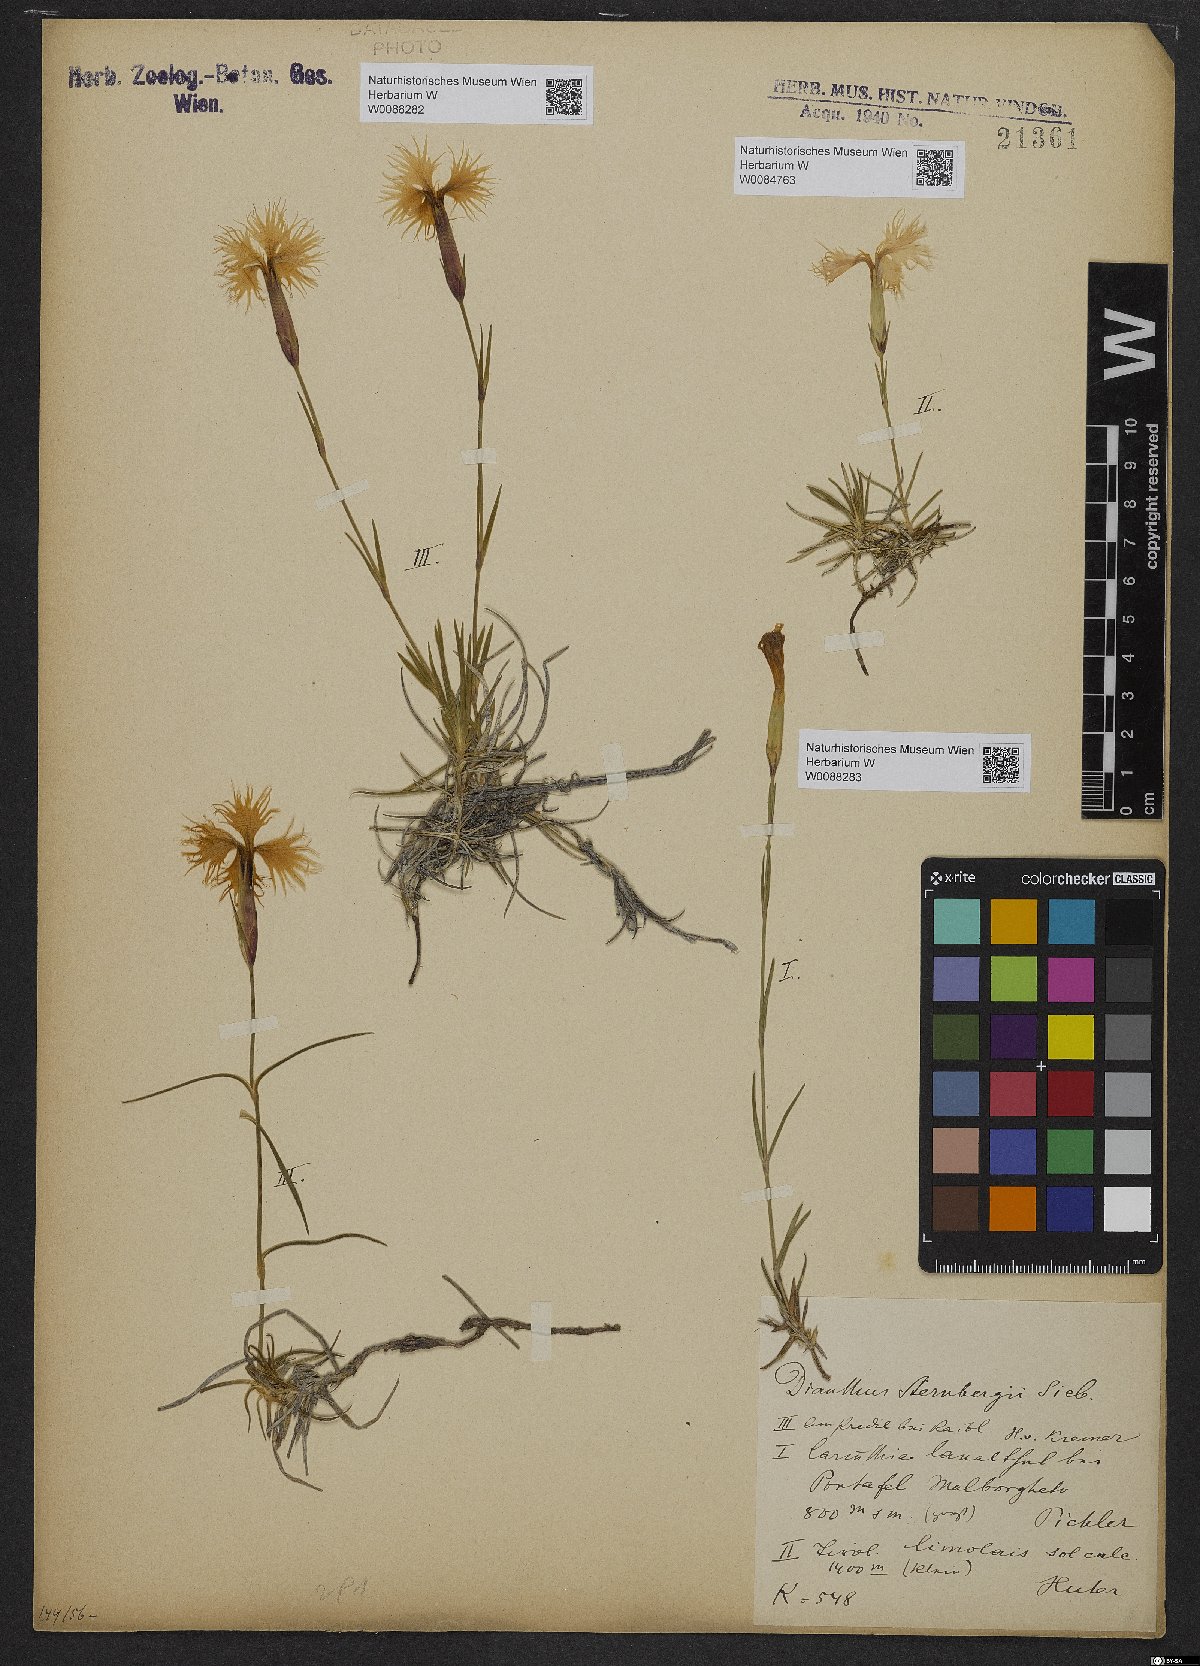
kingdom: Plantae
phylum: Tracheophyta
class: Magnoliopsida
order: Caryophyllales
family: Caryophyllaceae
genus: Dianthus
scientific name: Dianthus monspessulanus
